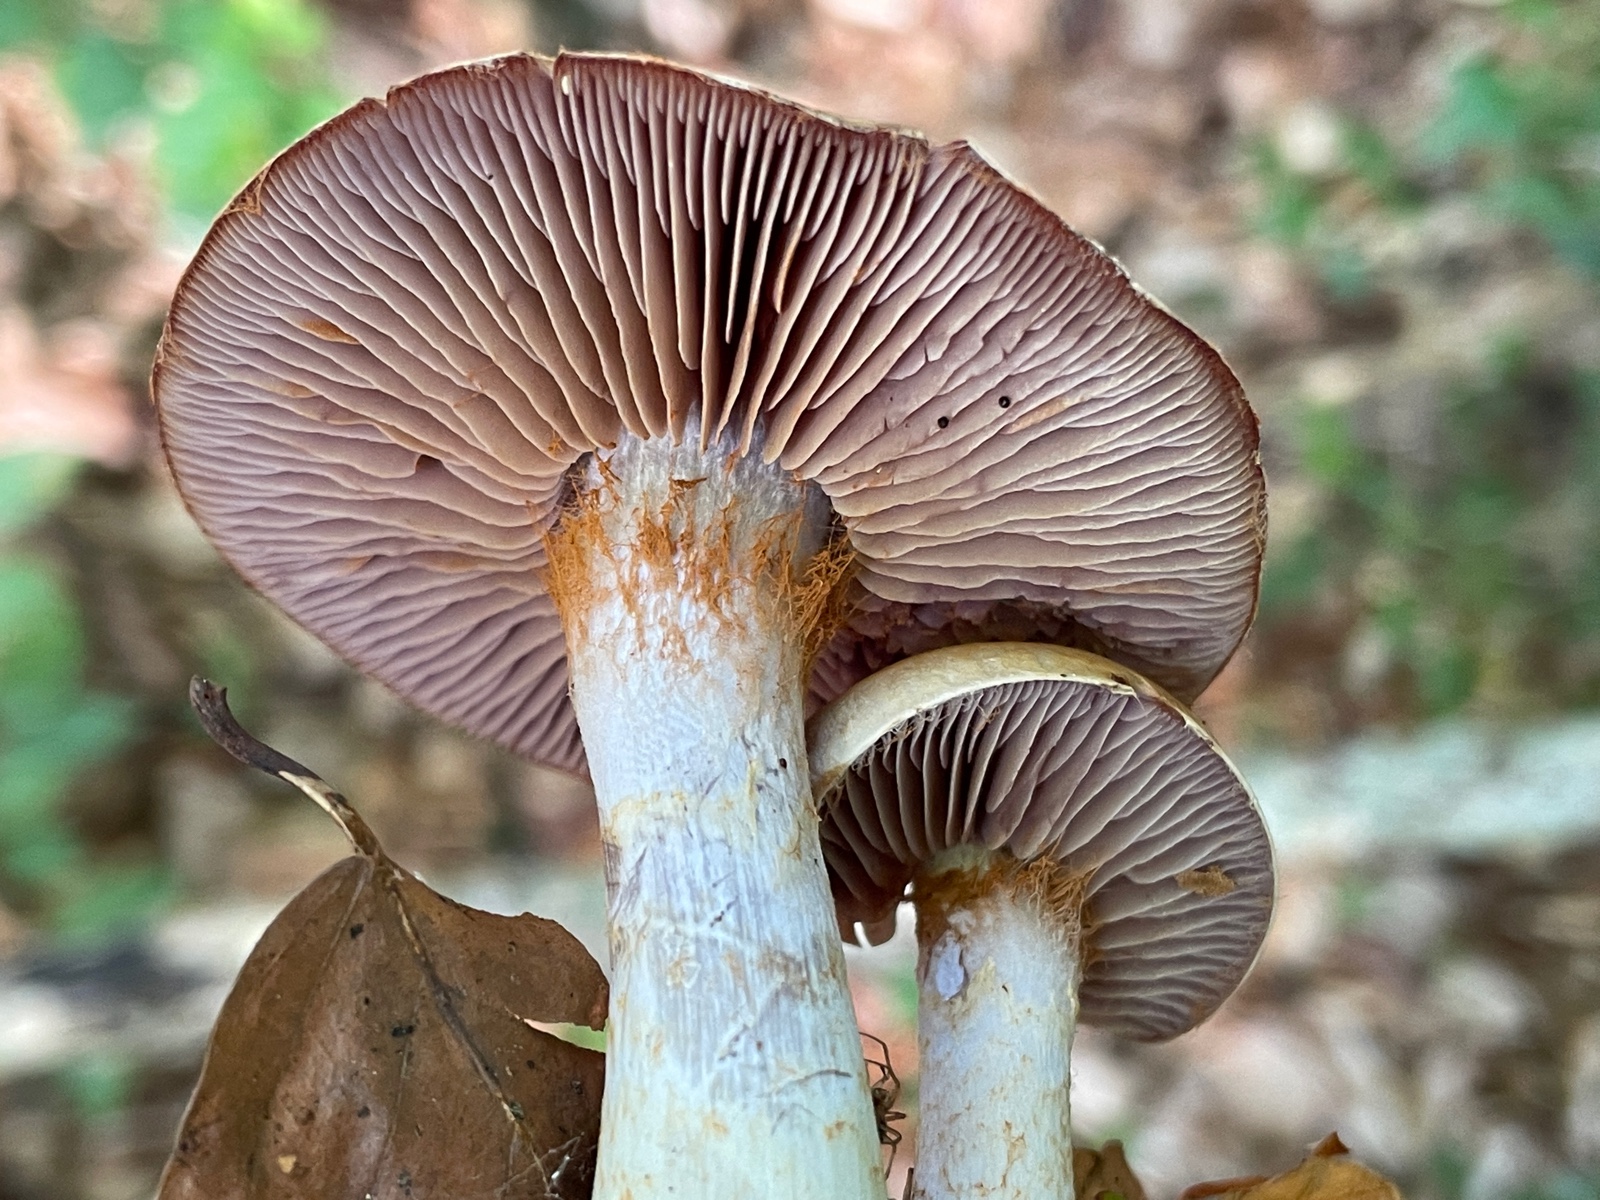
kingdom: Fungi
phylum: Basidiomycota
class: Agaricomycetes
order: Agaricales
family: Cortinariaceae
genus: Cortinarius
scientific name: Cortinarius pelerinii
